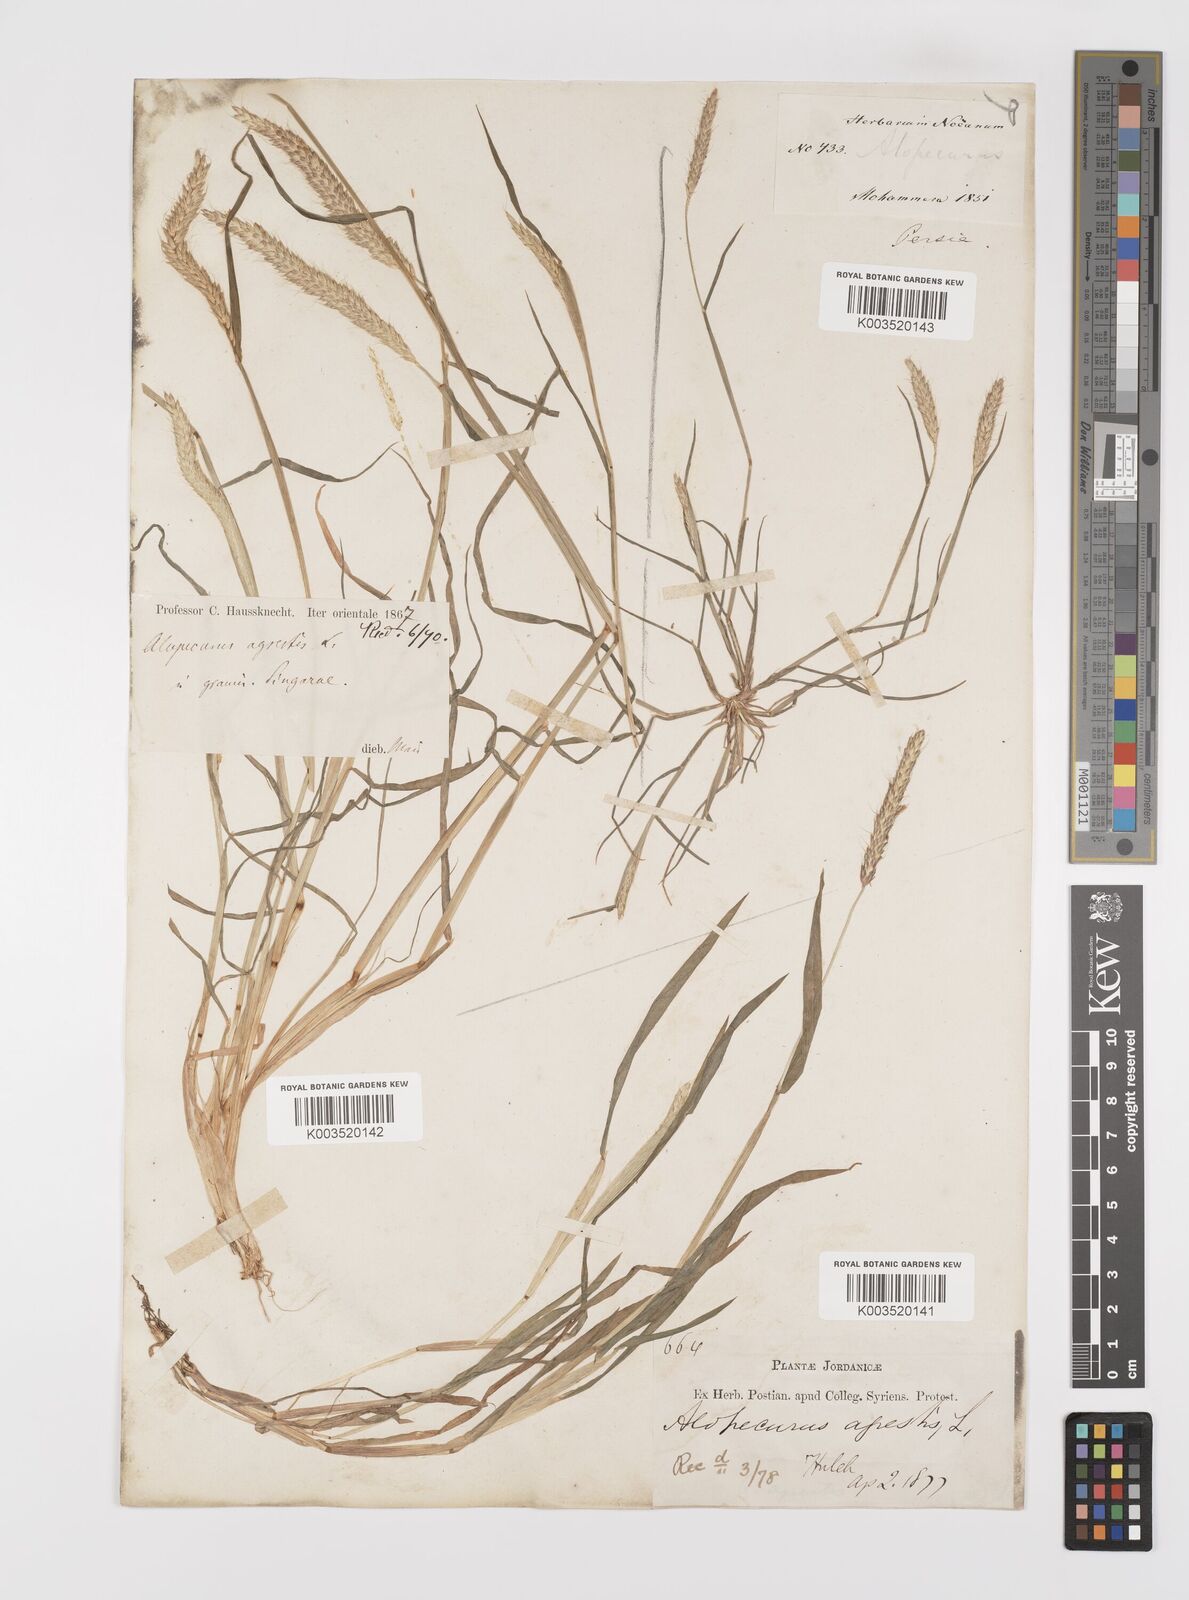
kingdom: Plantae
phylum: Tracheophyta
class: Liliopsida
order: Poales
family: Poaceae
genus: Alopecurus
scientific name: Alopecurus myosuroides
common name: Black-grass
